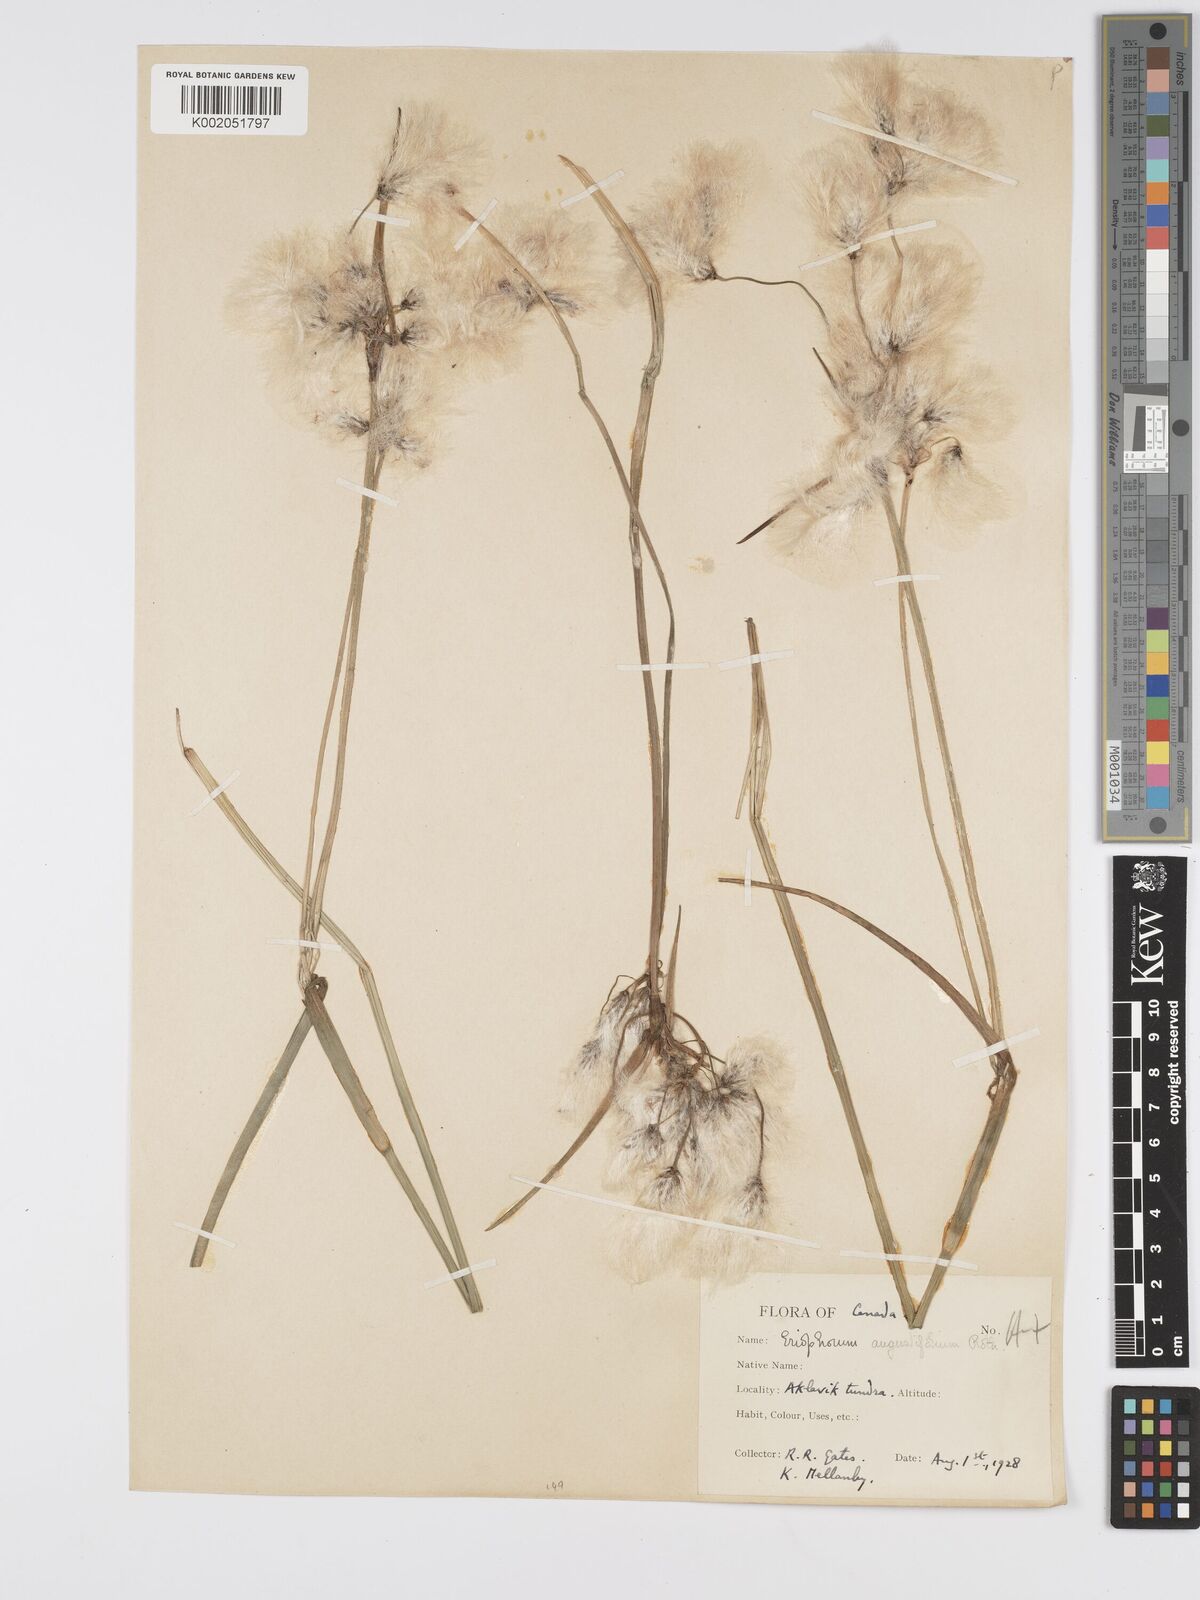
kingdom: Plantae
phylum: Tracheophyta
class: Liliopsida
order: Poales
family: Cyperaceae
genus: Eriophorum
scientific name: Eriophorum angustifolium
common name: Common cottongrass
